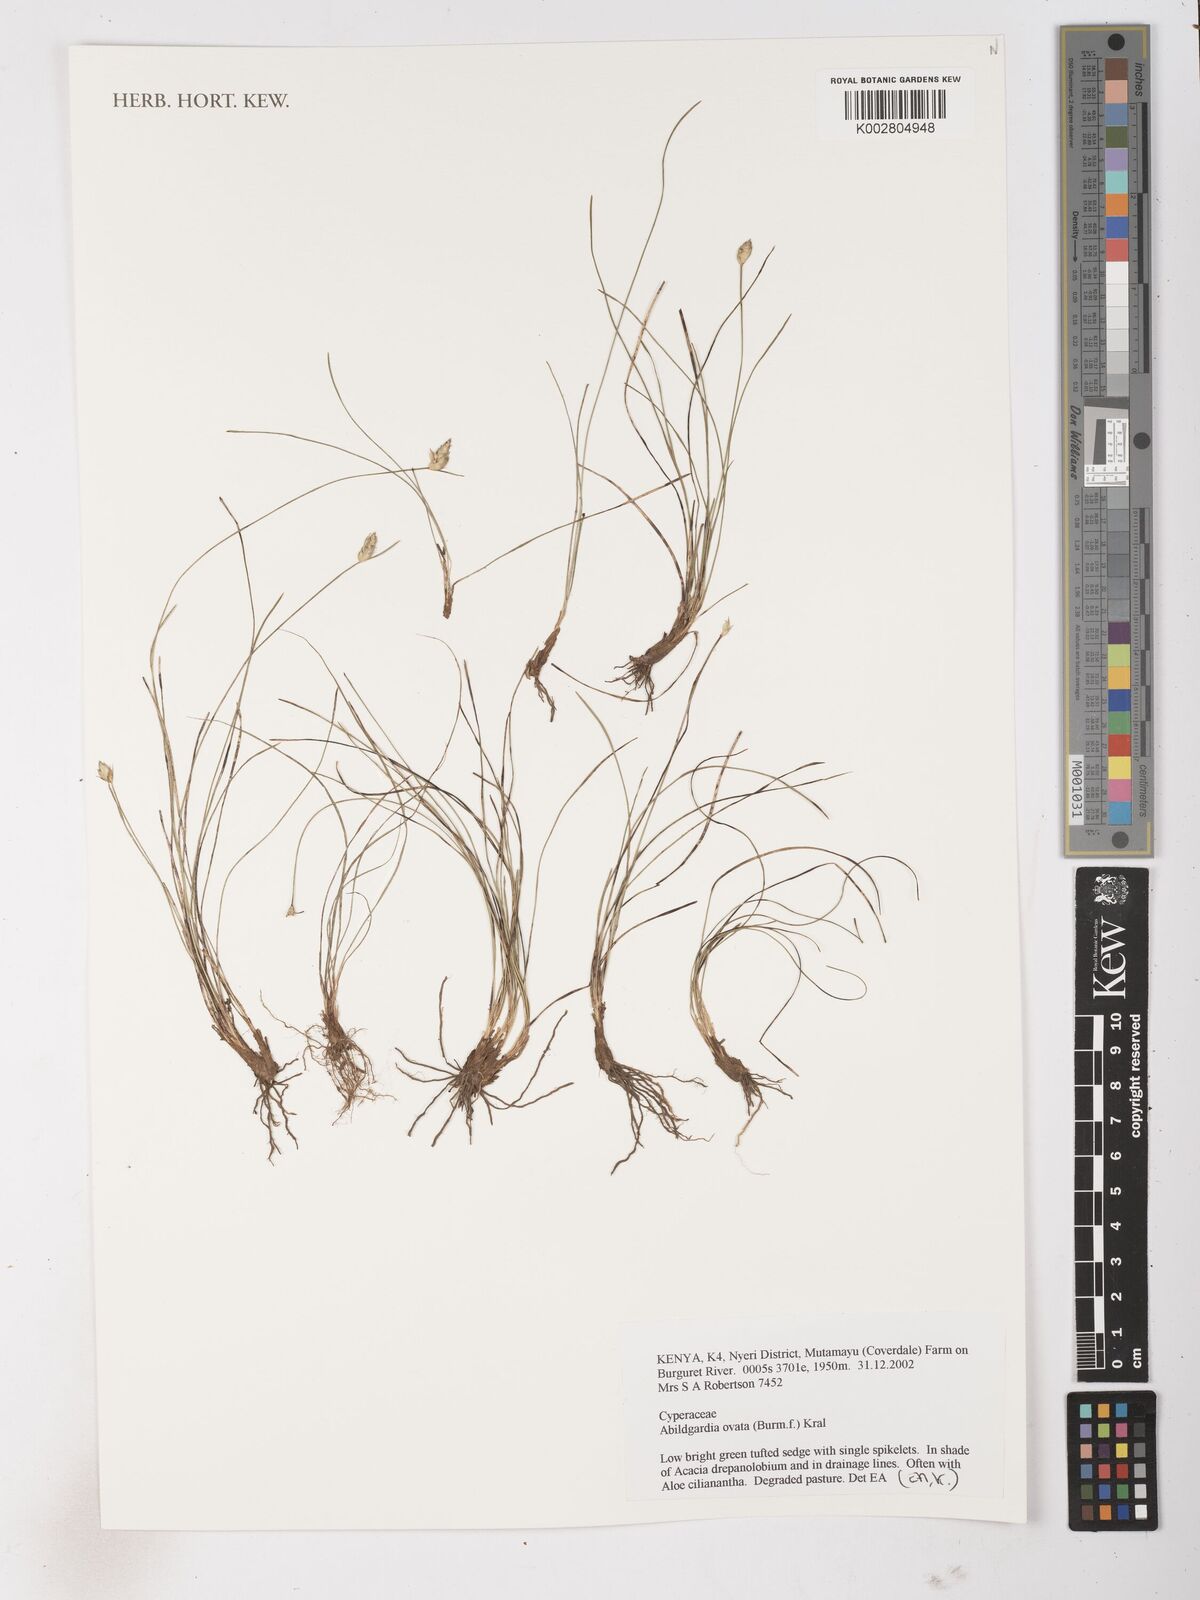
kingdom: Plantae
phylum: Tracheophyta
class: Liliopsida
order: Poales
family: Cyperaceae
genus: Abildgaardia
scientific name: Abildgaardia ovata
